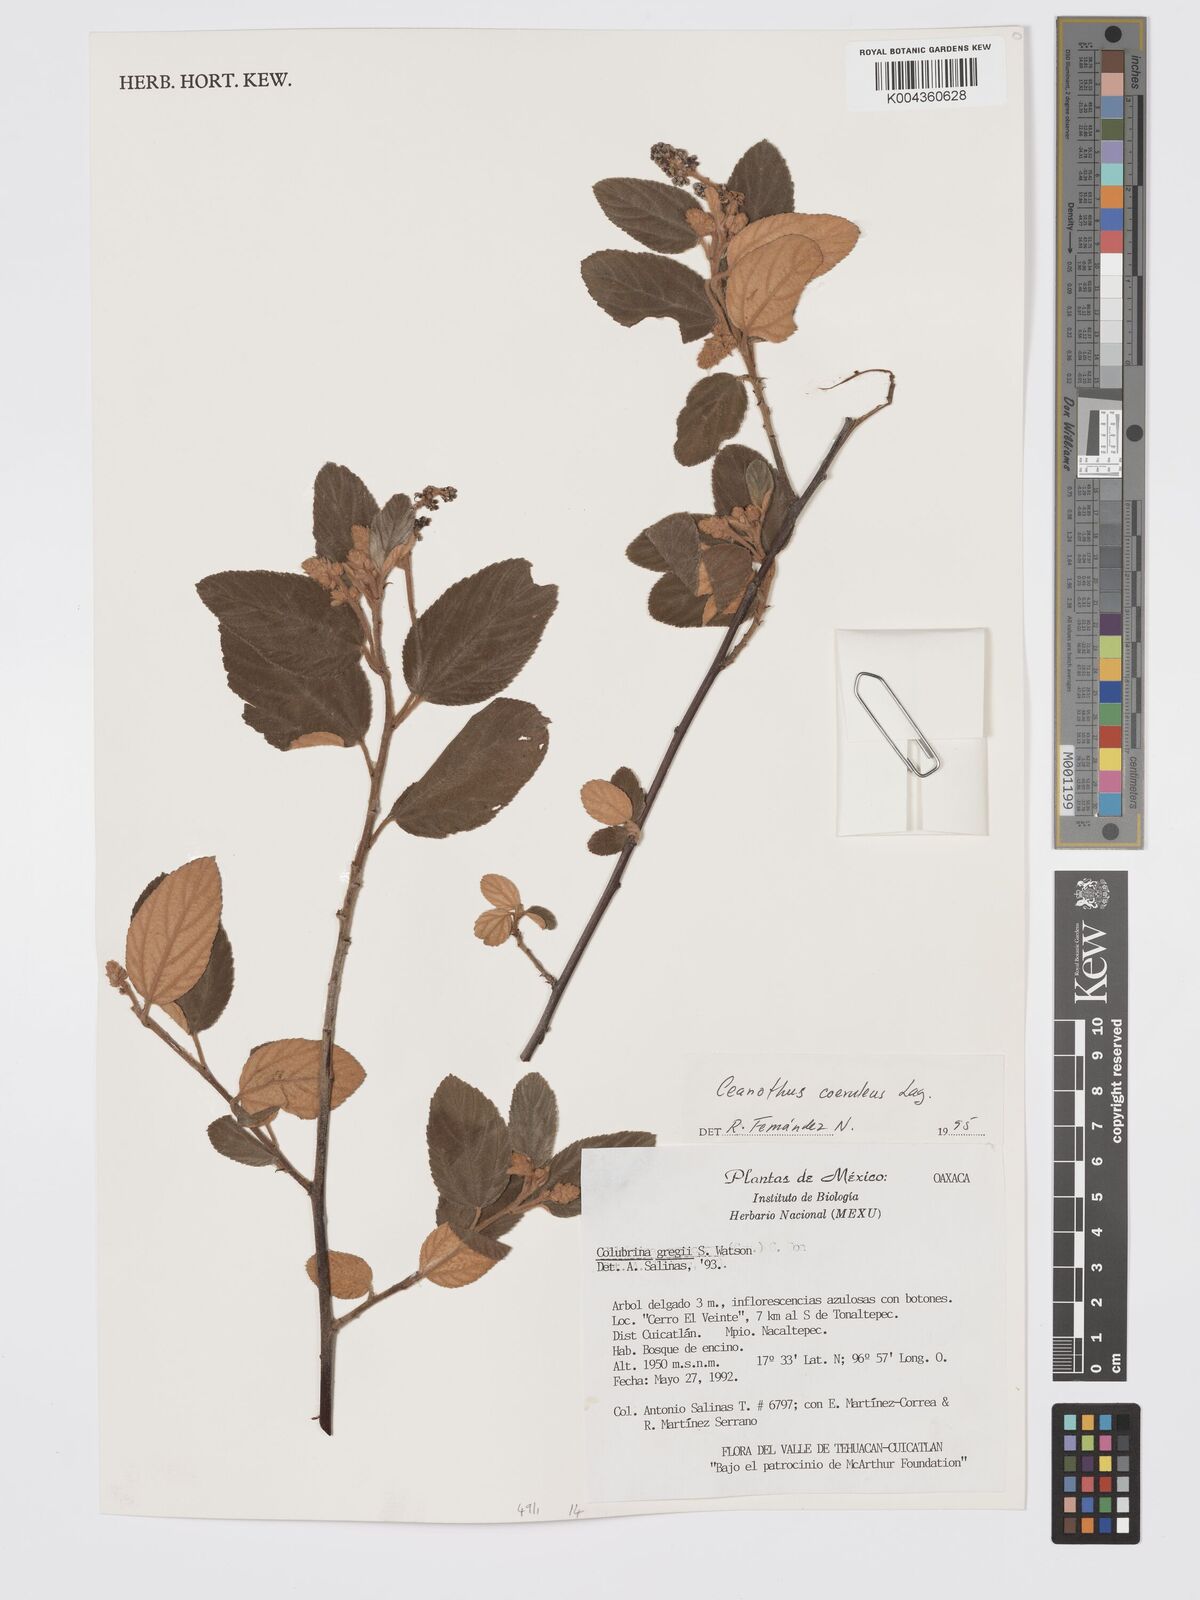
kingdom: Plantae
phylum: Tracheophyta
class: Magnoliopsida
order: Rosales
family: Rhamnaceae
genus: Ceanothus
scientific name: Ceanothus caeruleus
